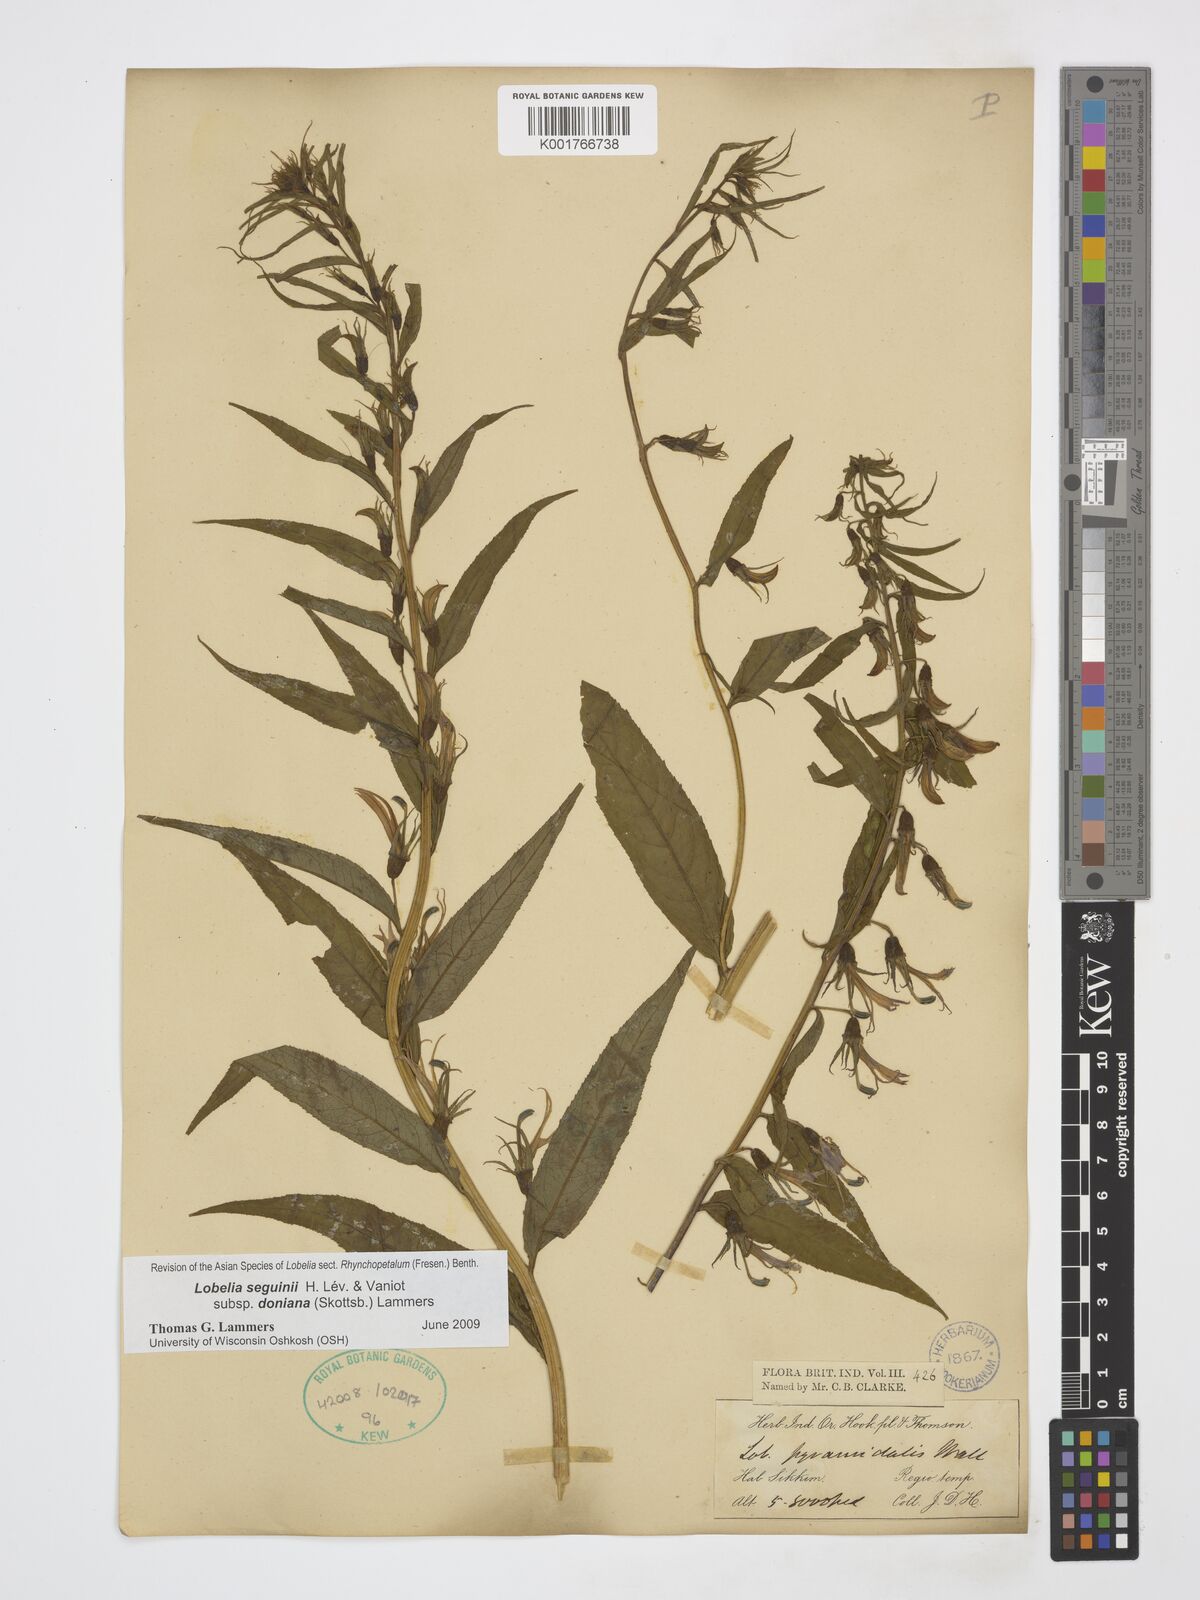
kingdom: Plantae
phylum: Tracheophyta
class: Magnoliopsida
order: Asterales
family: Campanulaceae
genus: Lobelia
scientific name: Lobelia seguinii
